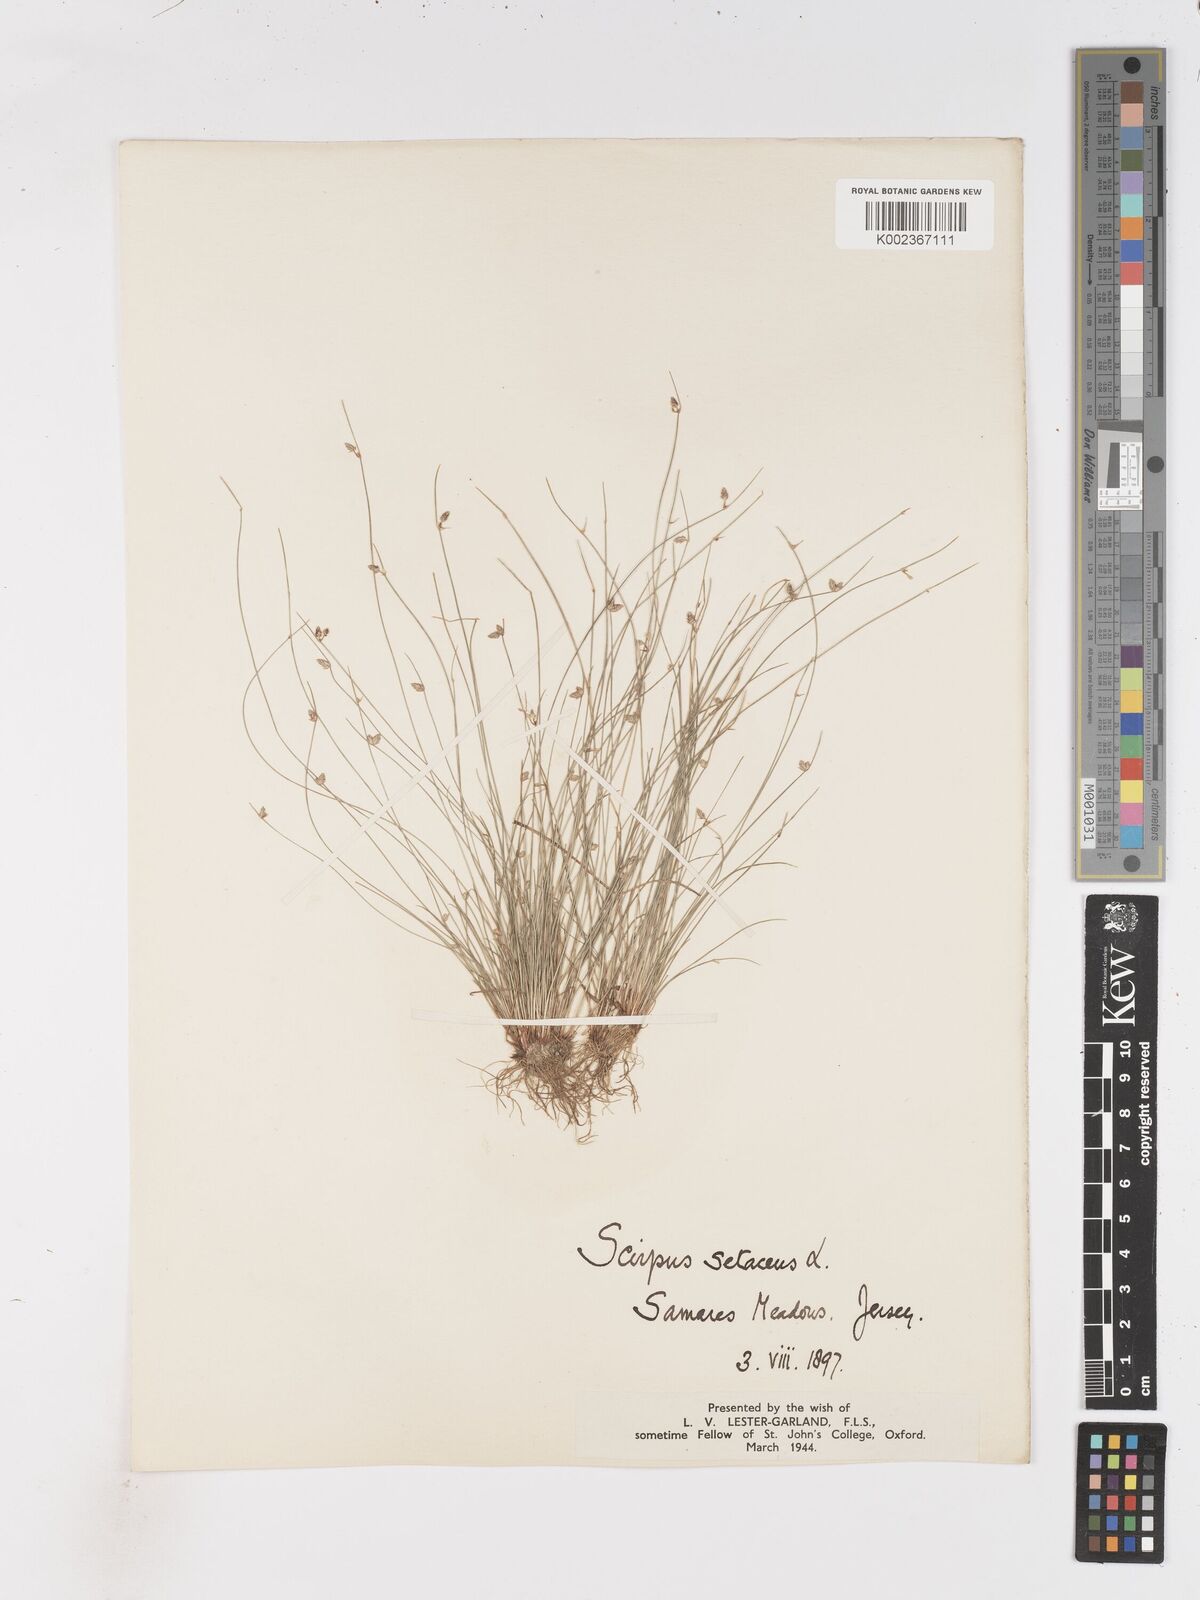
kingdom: Plantae
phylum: Tracheophyta
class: Liliopsida
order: Poales
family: Cyperaceae
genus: Isolepis
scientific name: Isolepis setacea
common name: Bristle club-rush
